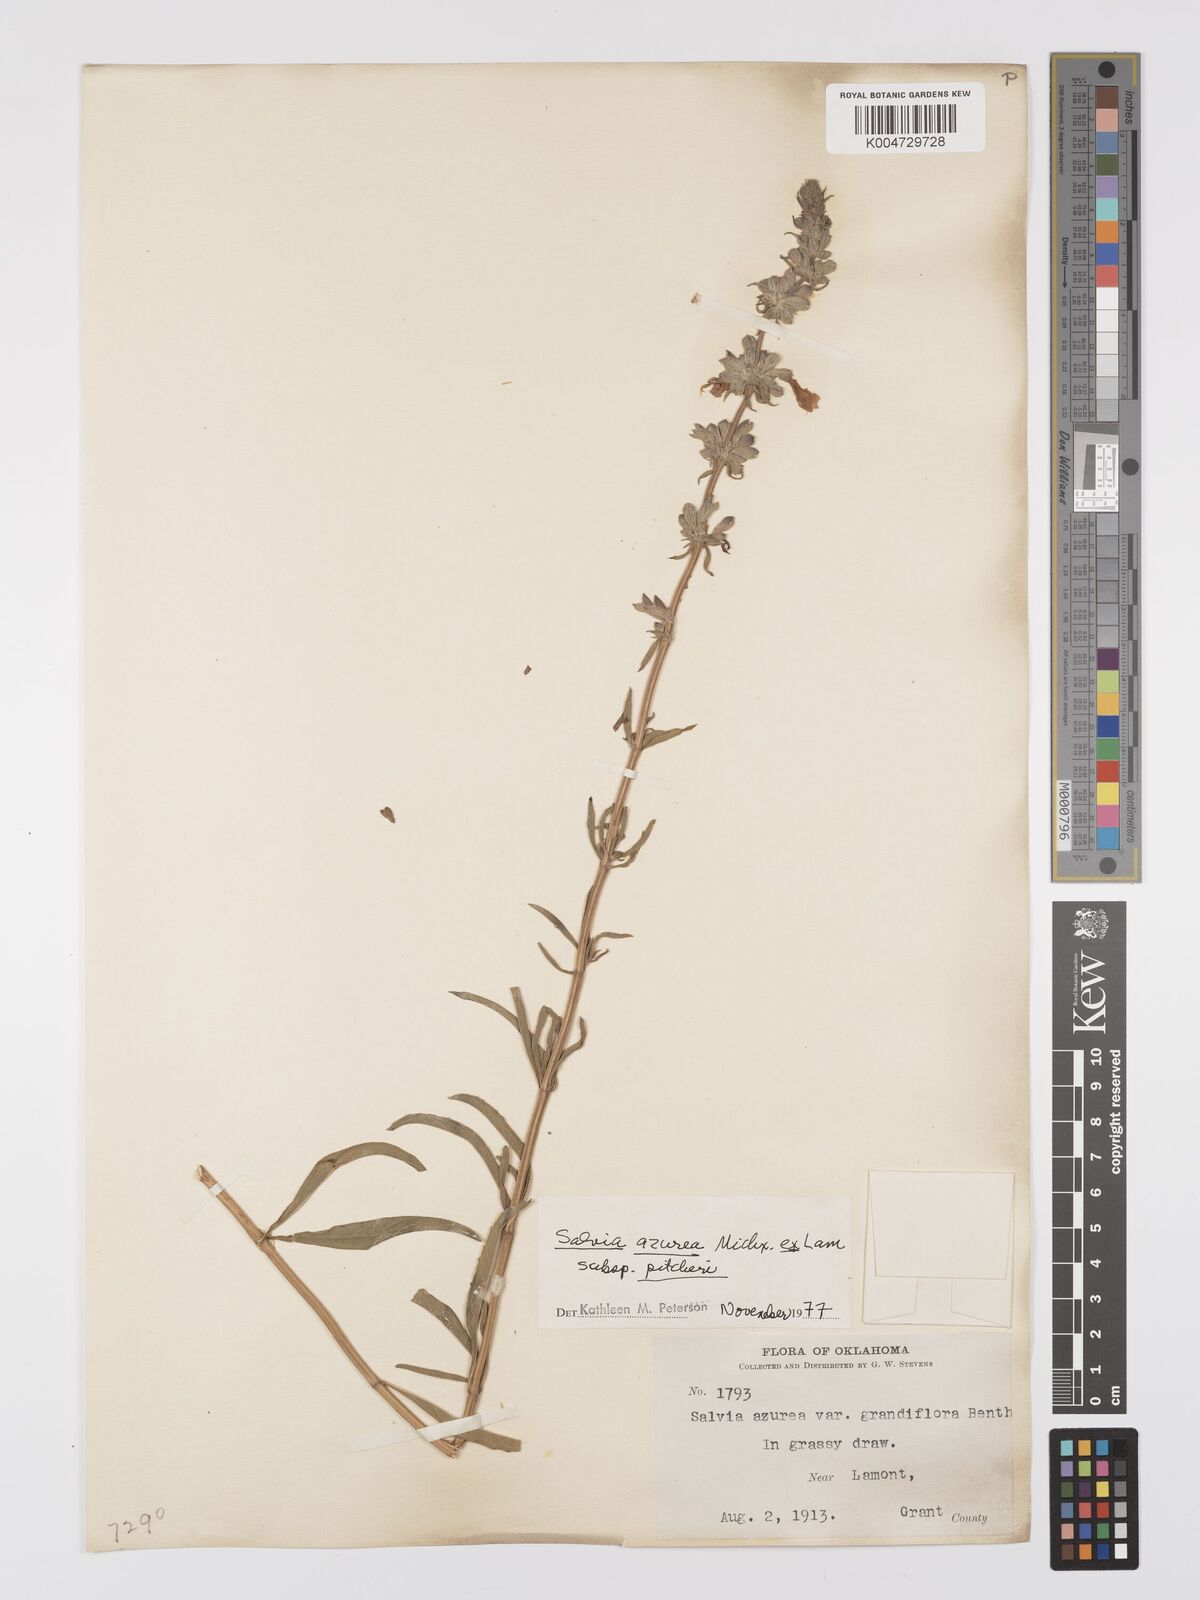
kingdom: Plantae
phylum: Tracheophyta
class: Magnoliopsida
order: Lamiales
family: Lamiaceae
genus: Salvia
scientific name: Salvia azurea
